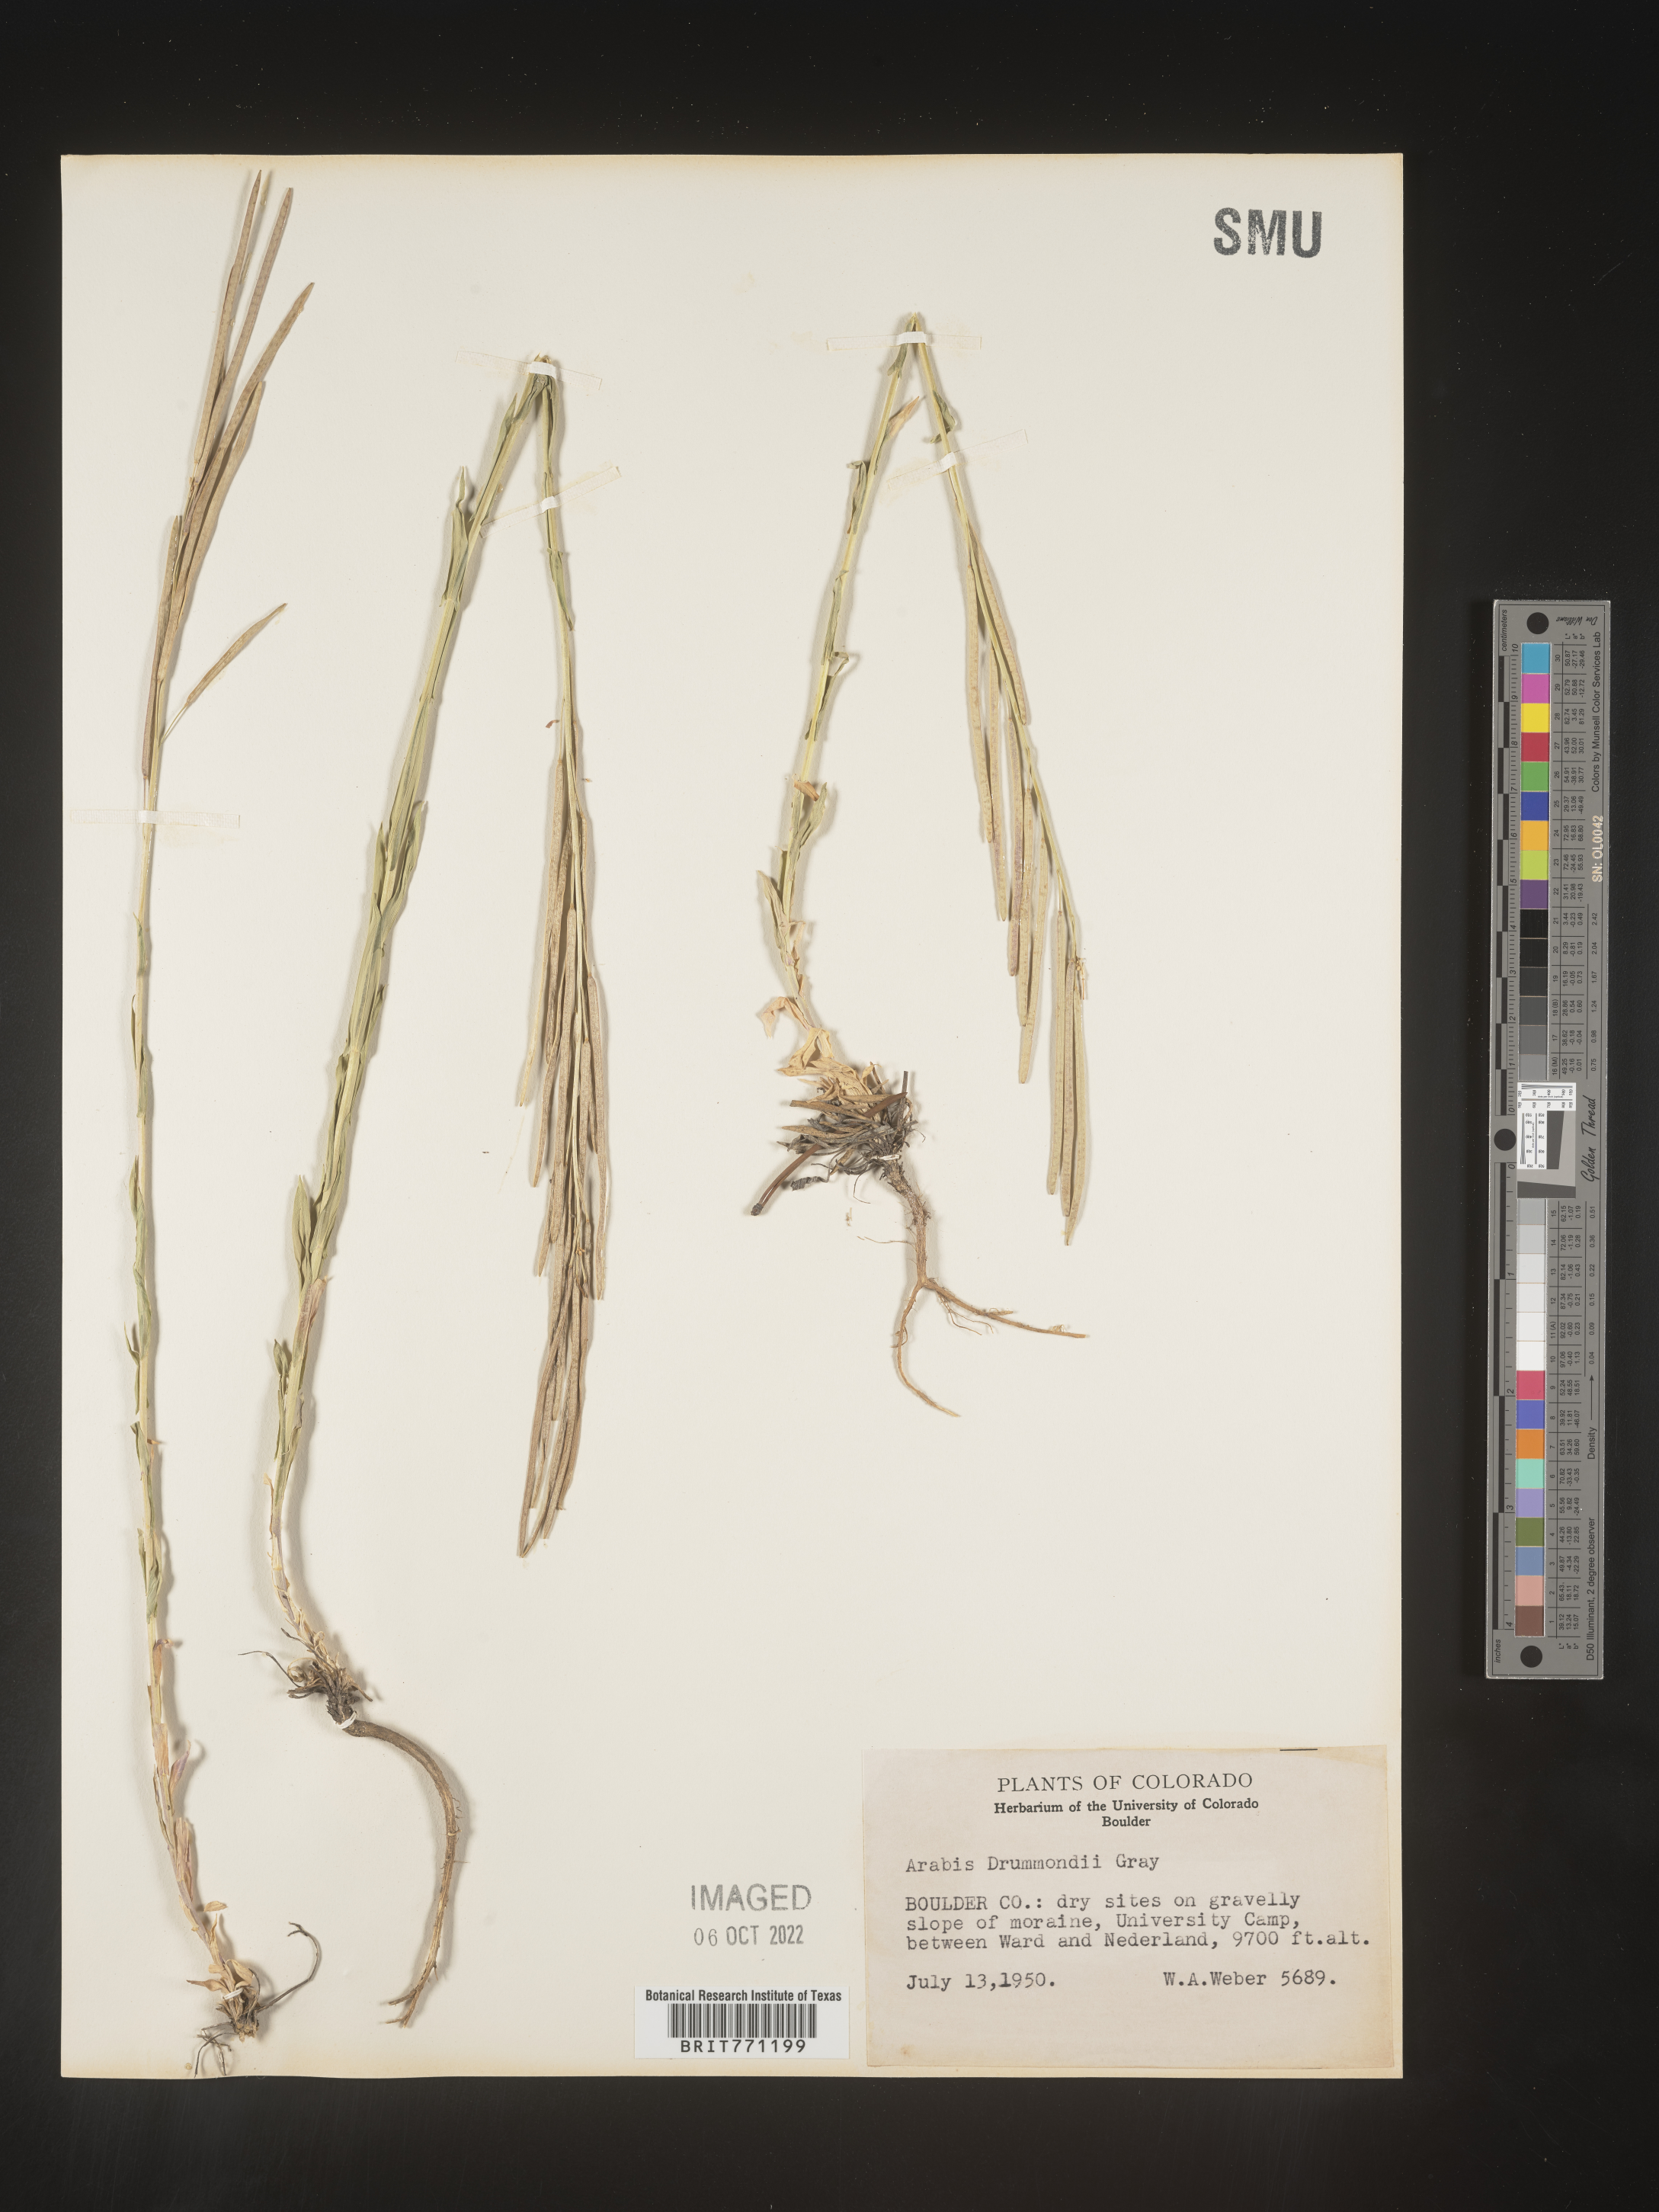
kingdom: Plantae
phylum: Tracheophyta
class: Magnoliopsida
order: Brassicales
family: Brassicaceae
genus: Boechera
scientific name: Boechera stricta
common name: Canadian rockcress
